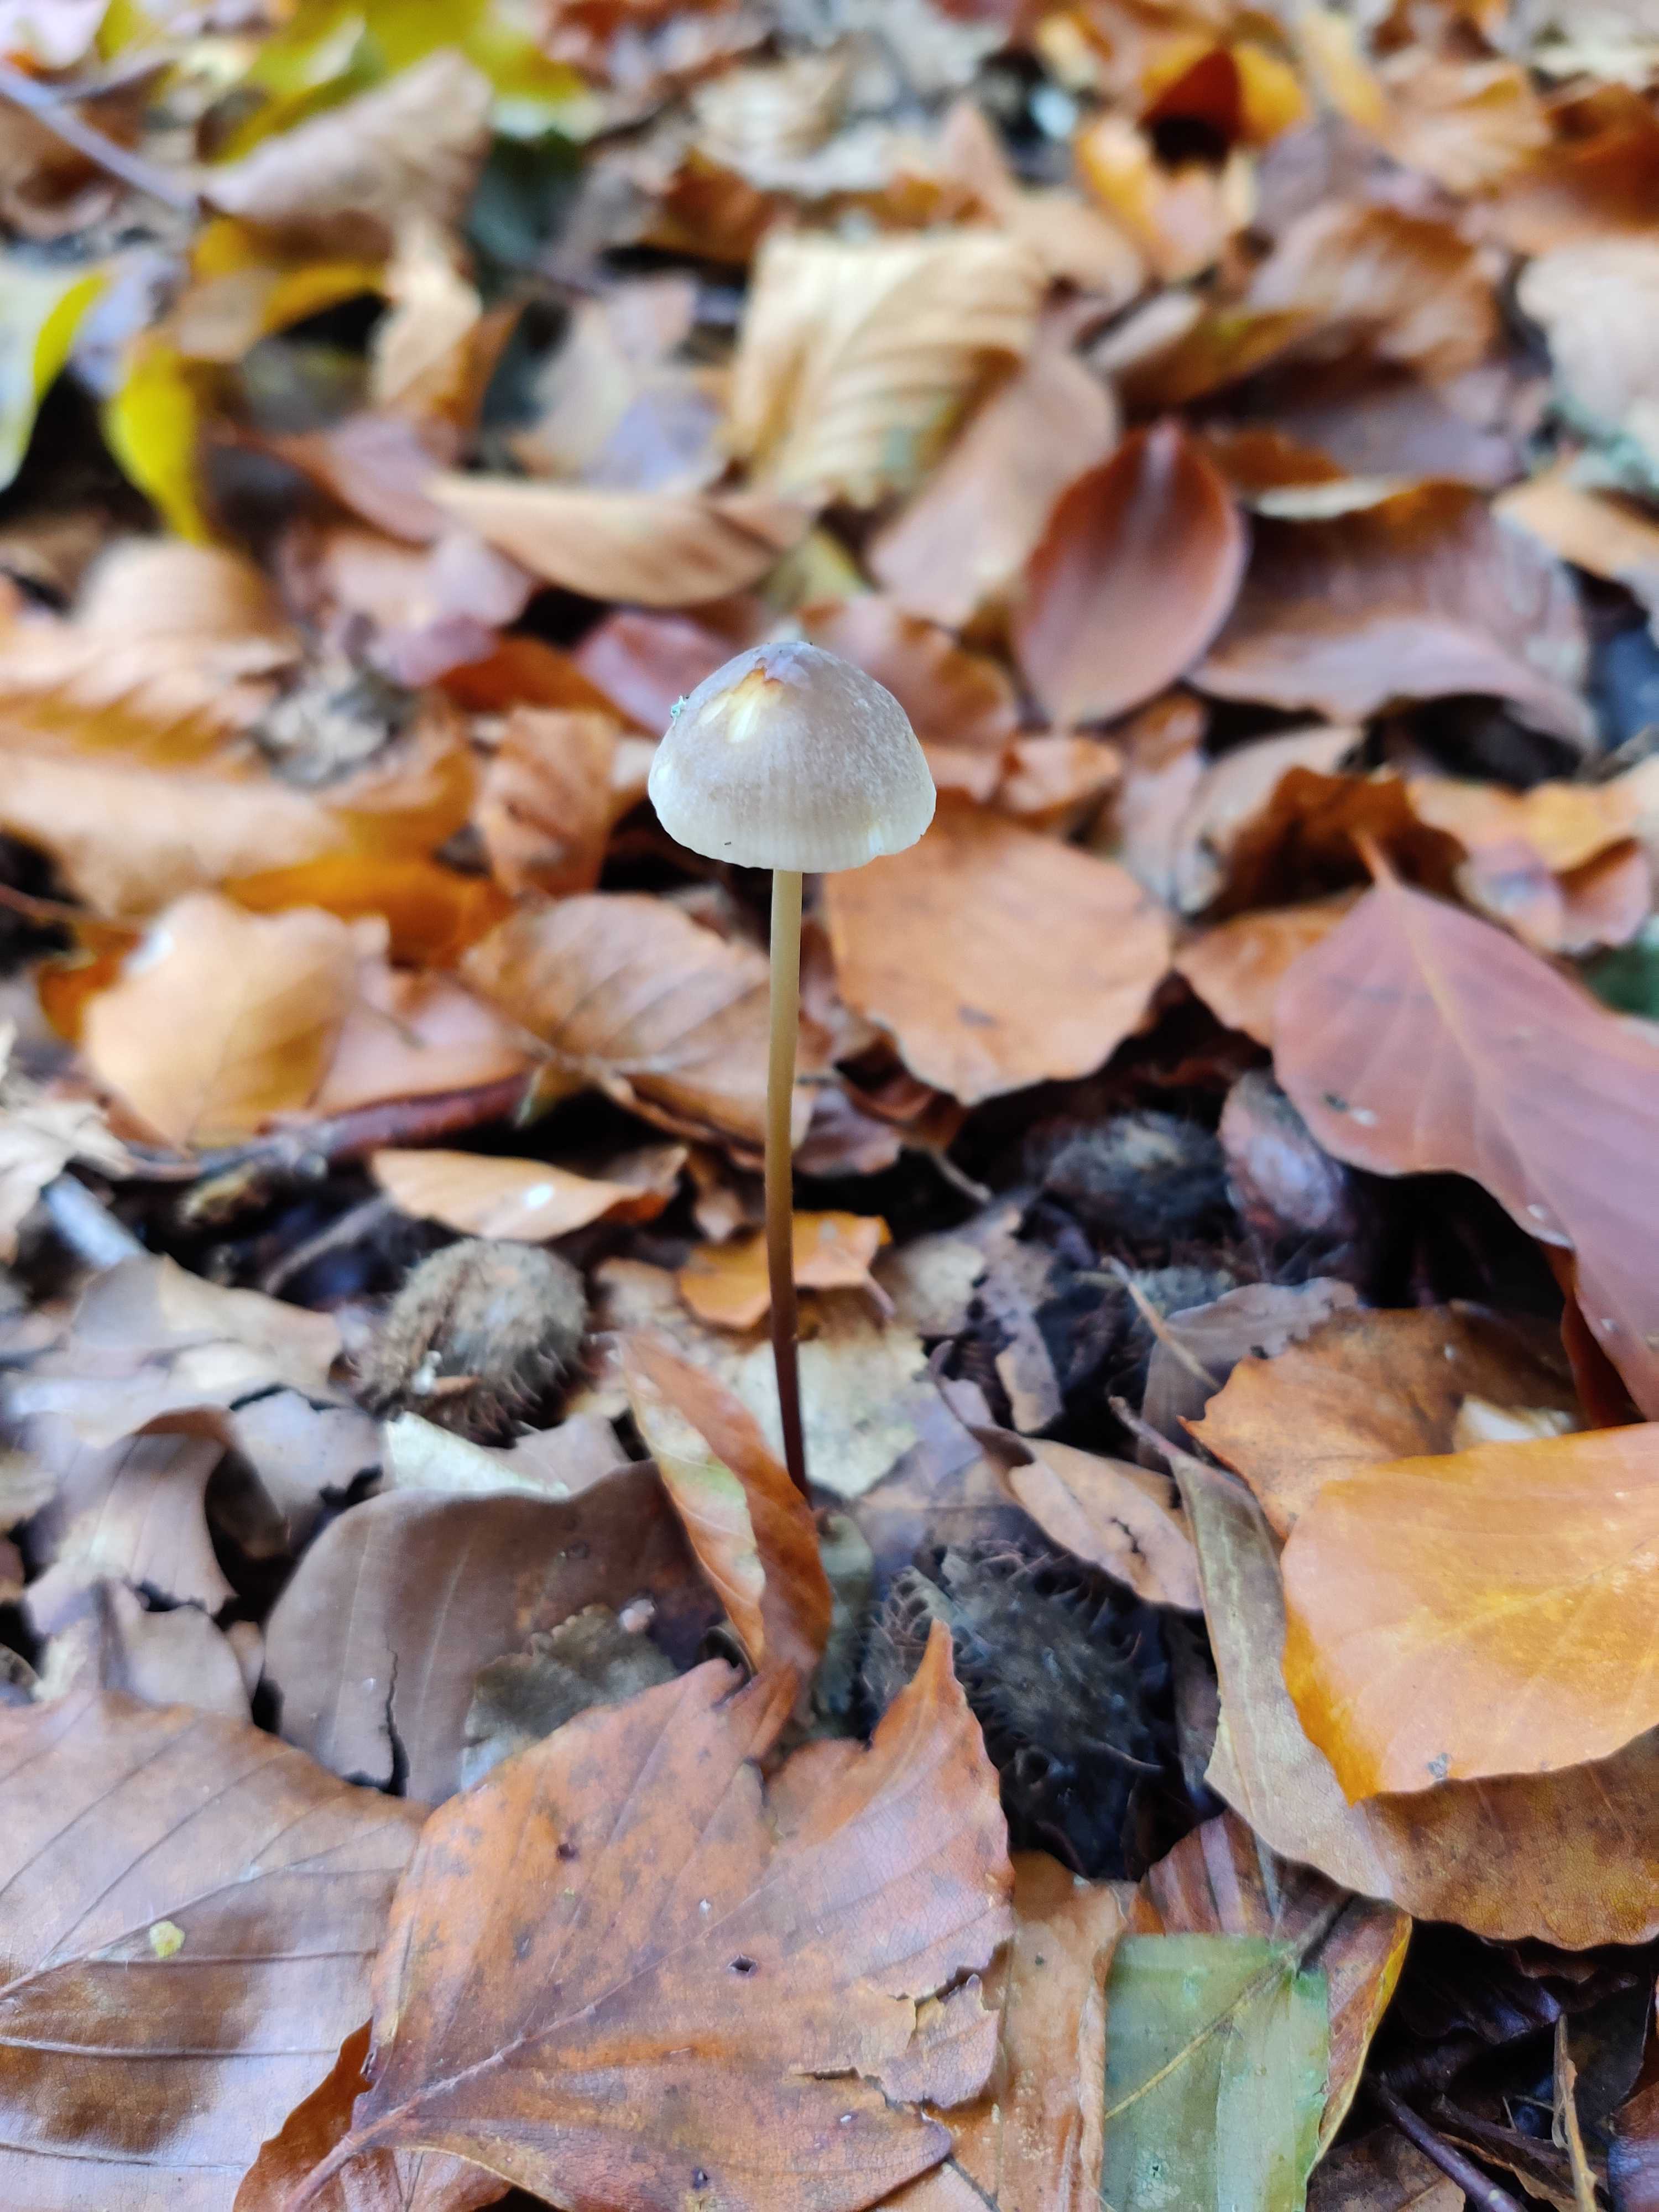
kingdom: Fungi
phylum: Basidiomycota
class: Agaricomycetes
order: Agaricales
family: Mycenaceae
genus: Mycena
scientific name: Mycena crocata
